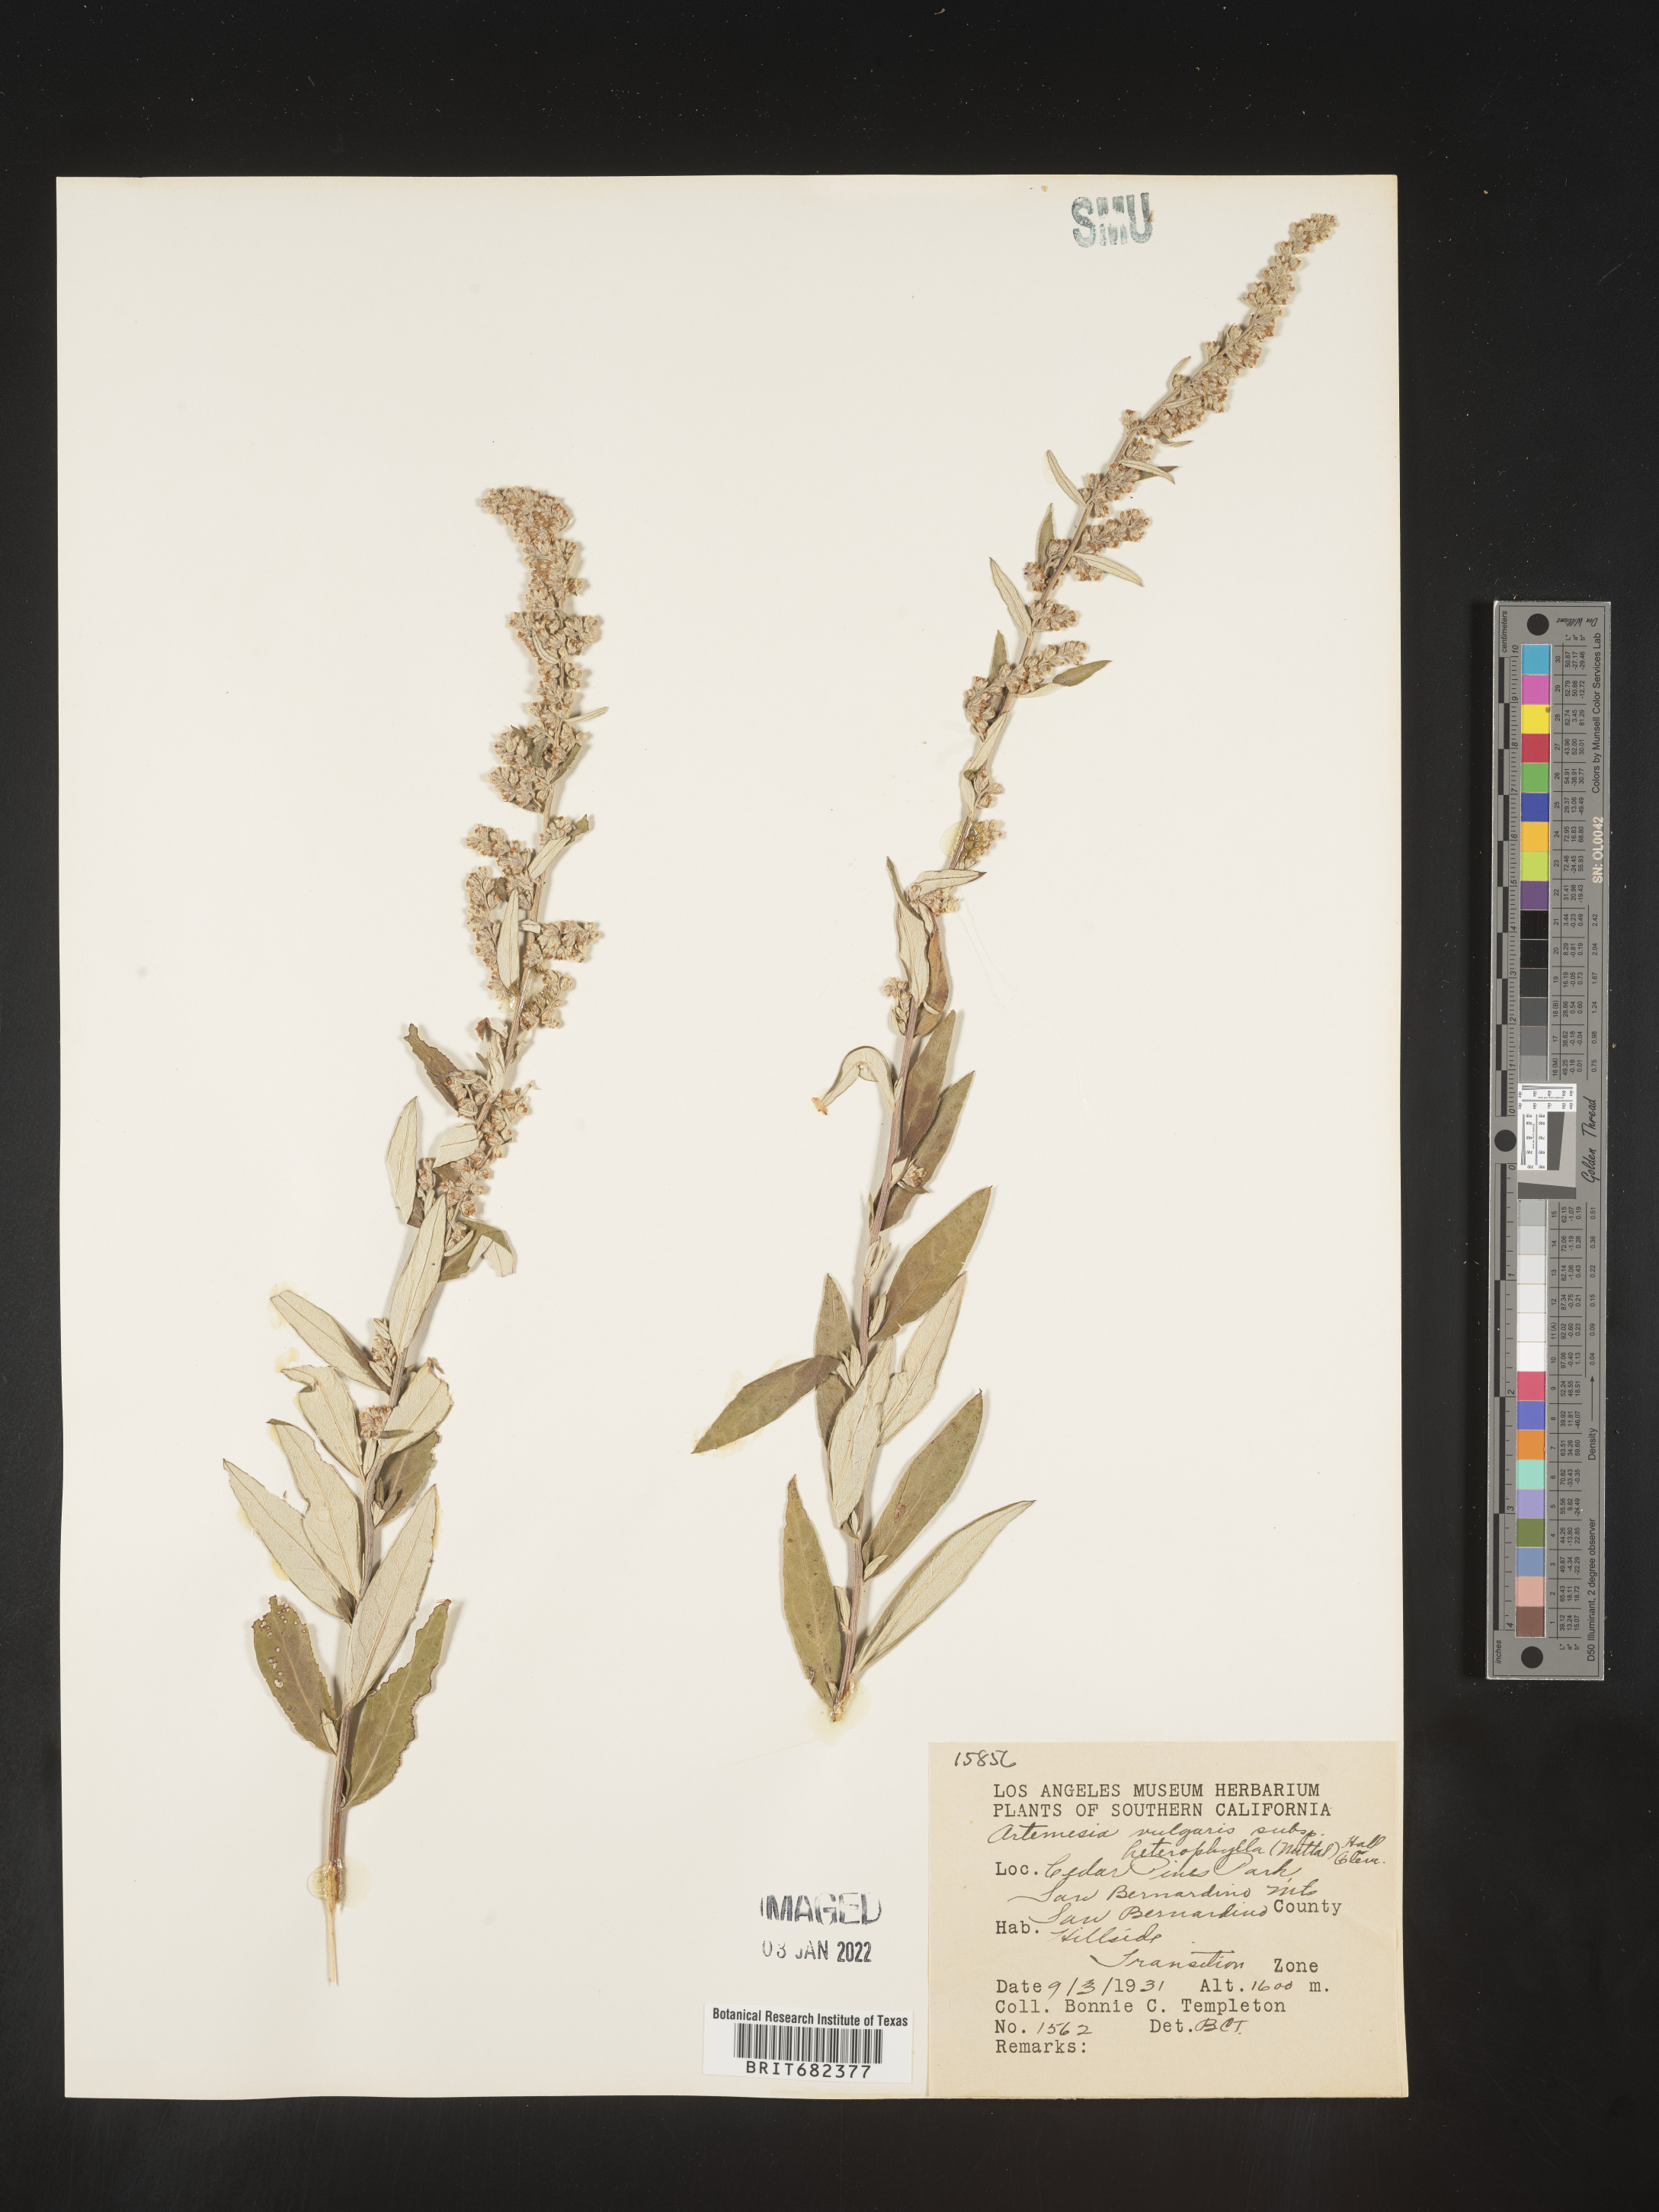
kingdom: Plantae
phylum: Tracheophyta
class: Magnoliopsida
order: Asterales
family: Asteraceae
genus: Artemisia
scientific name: Artemisia vulgaris
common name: Mugwort
